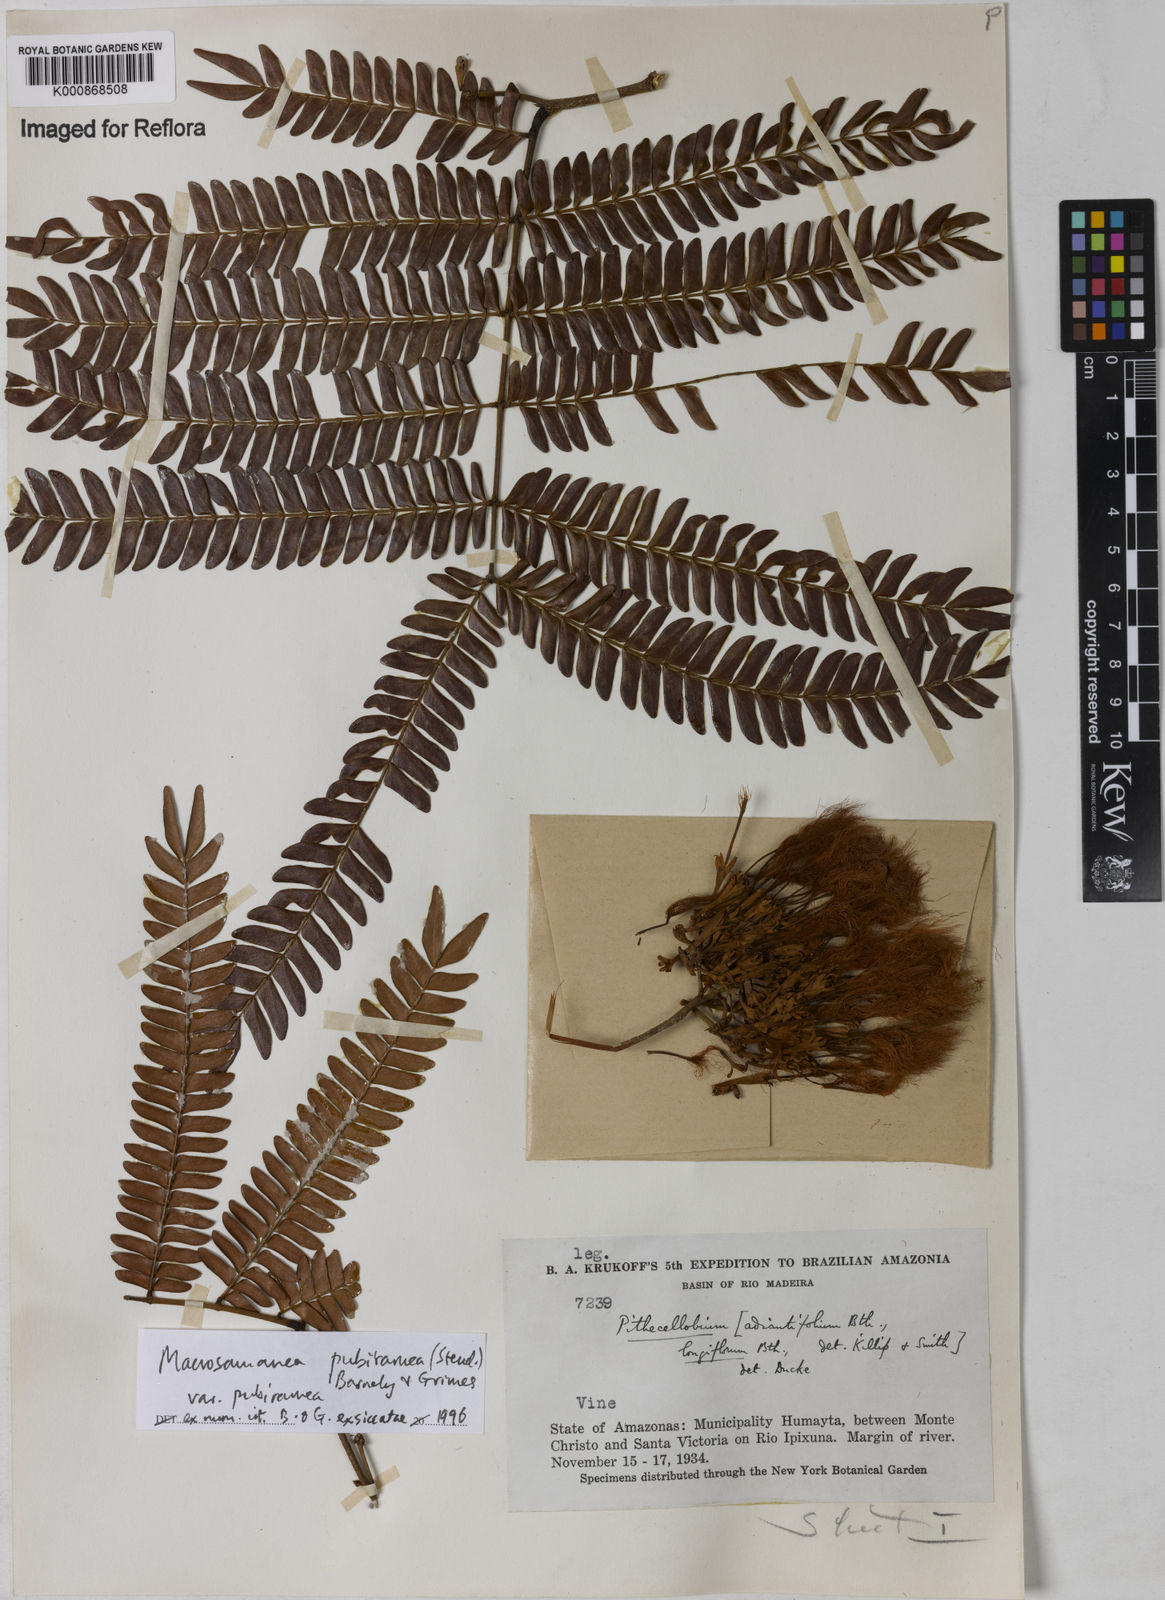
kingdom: Plantae
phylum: Tracheophyta
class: Magnoliopsida
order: Fabales
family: Fabaceae
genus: Macrosamanea
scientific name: Macrosamanea pubiramea
